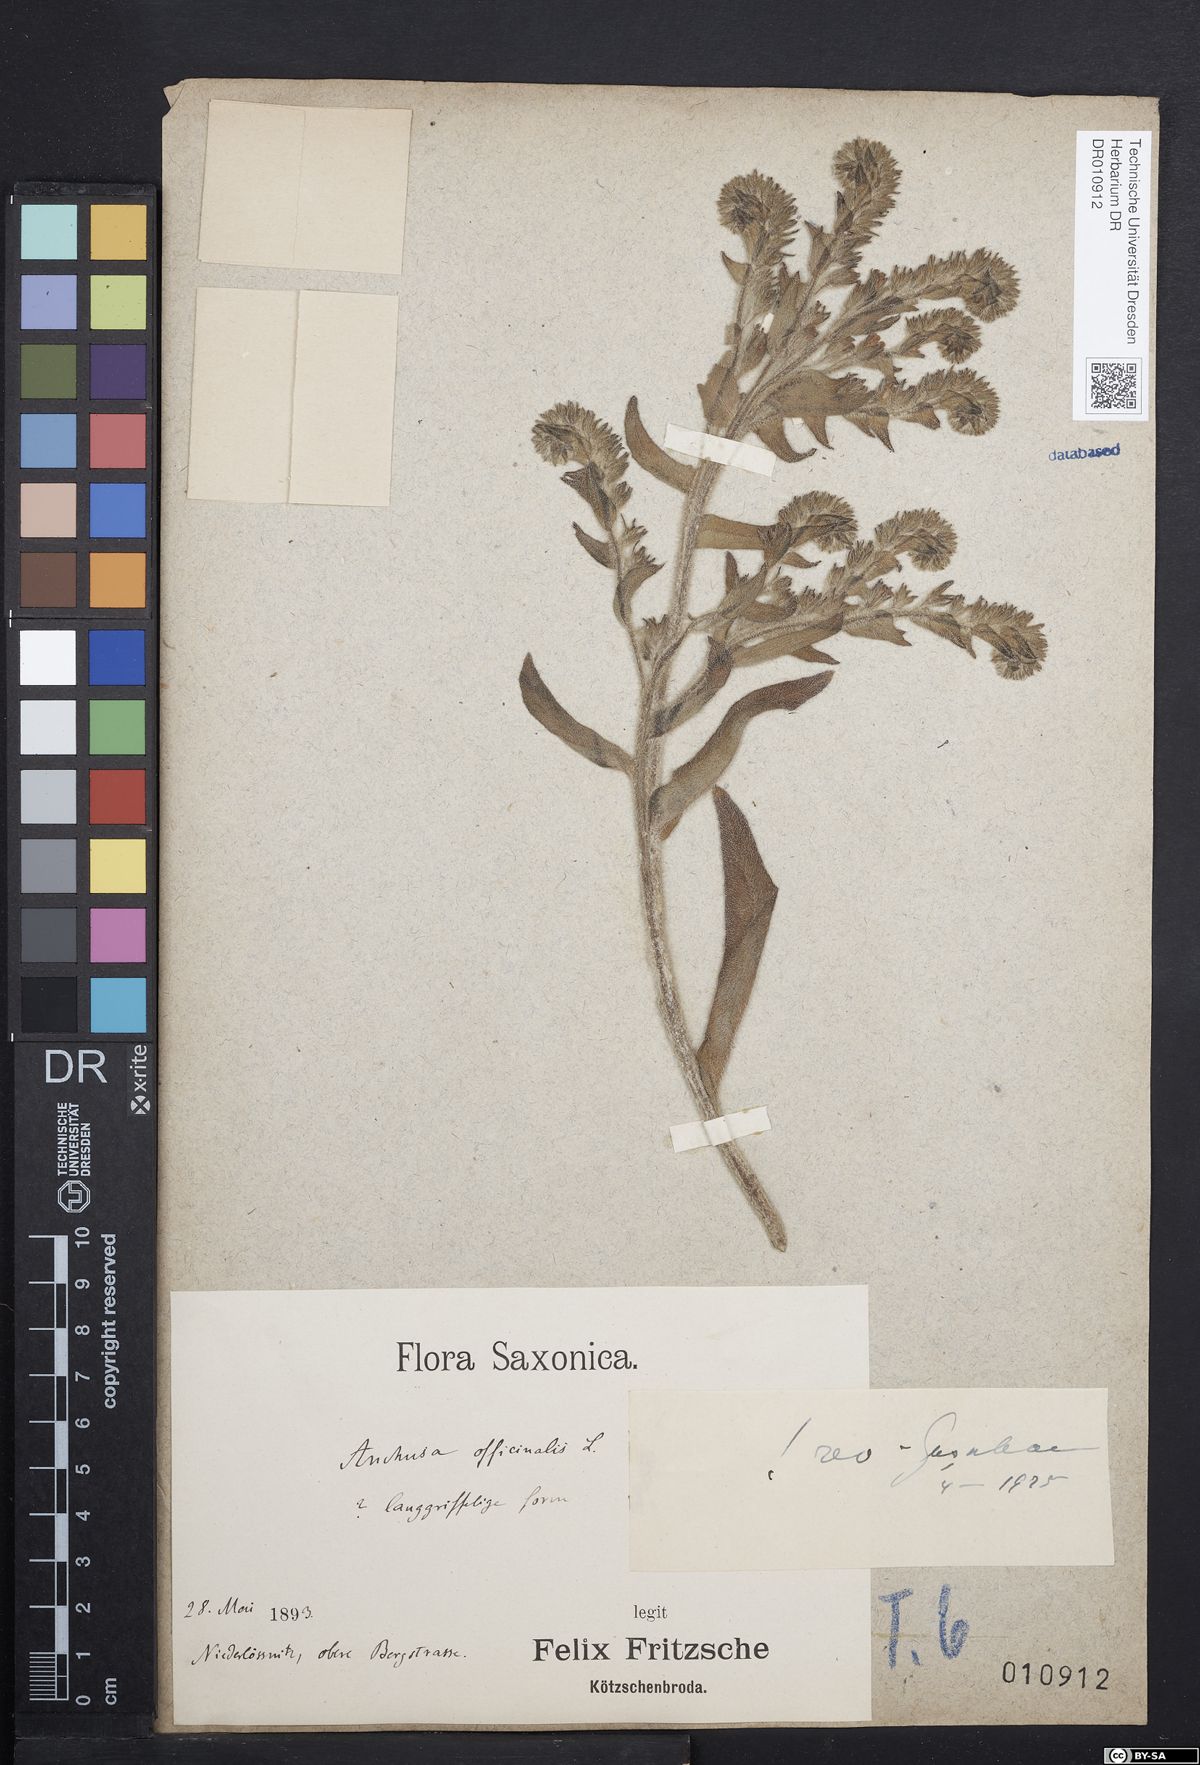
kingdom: Plantae
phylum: Tracheophyta
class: Magnoliopsida
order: Boraginales
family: Boraginaceae
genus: Anchusa
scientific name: Anchusa officinalis
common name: Alkanet
